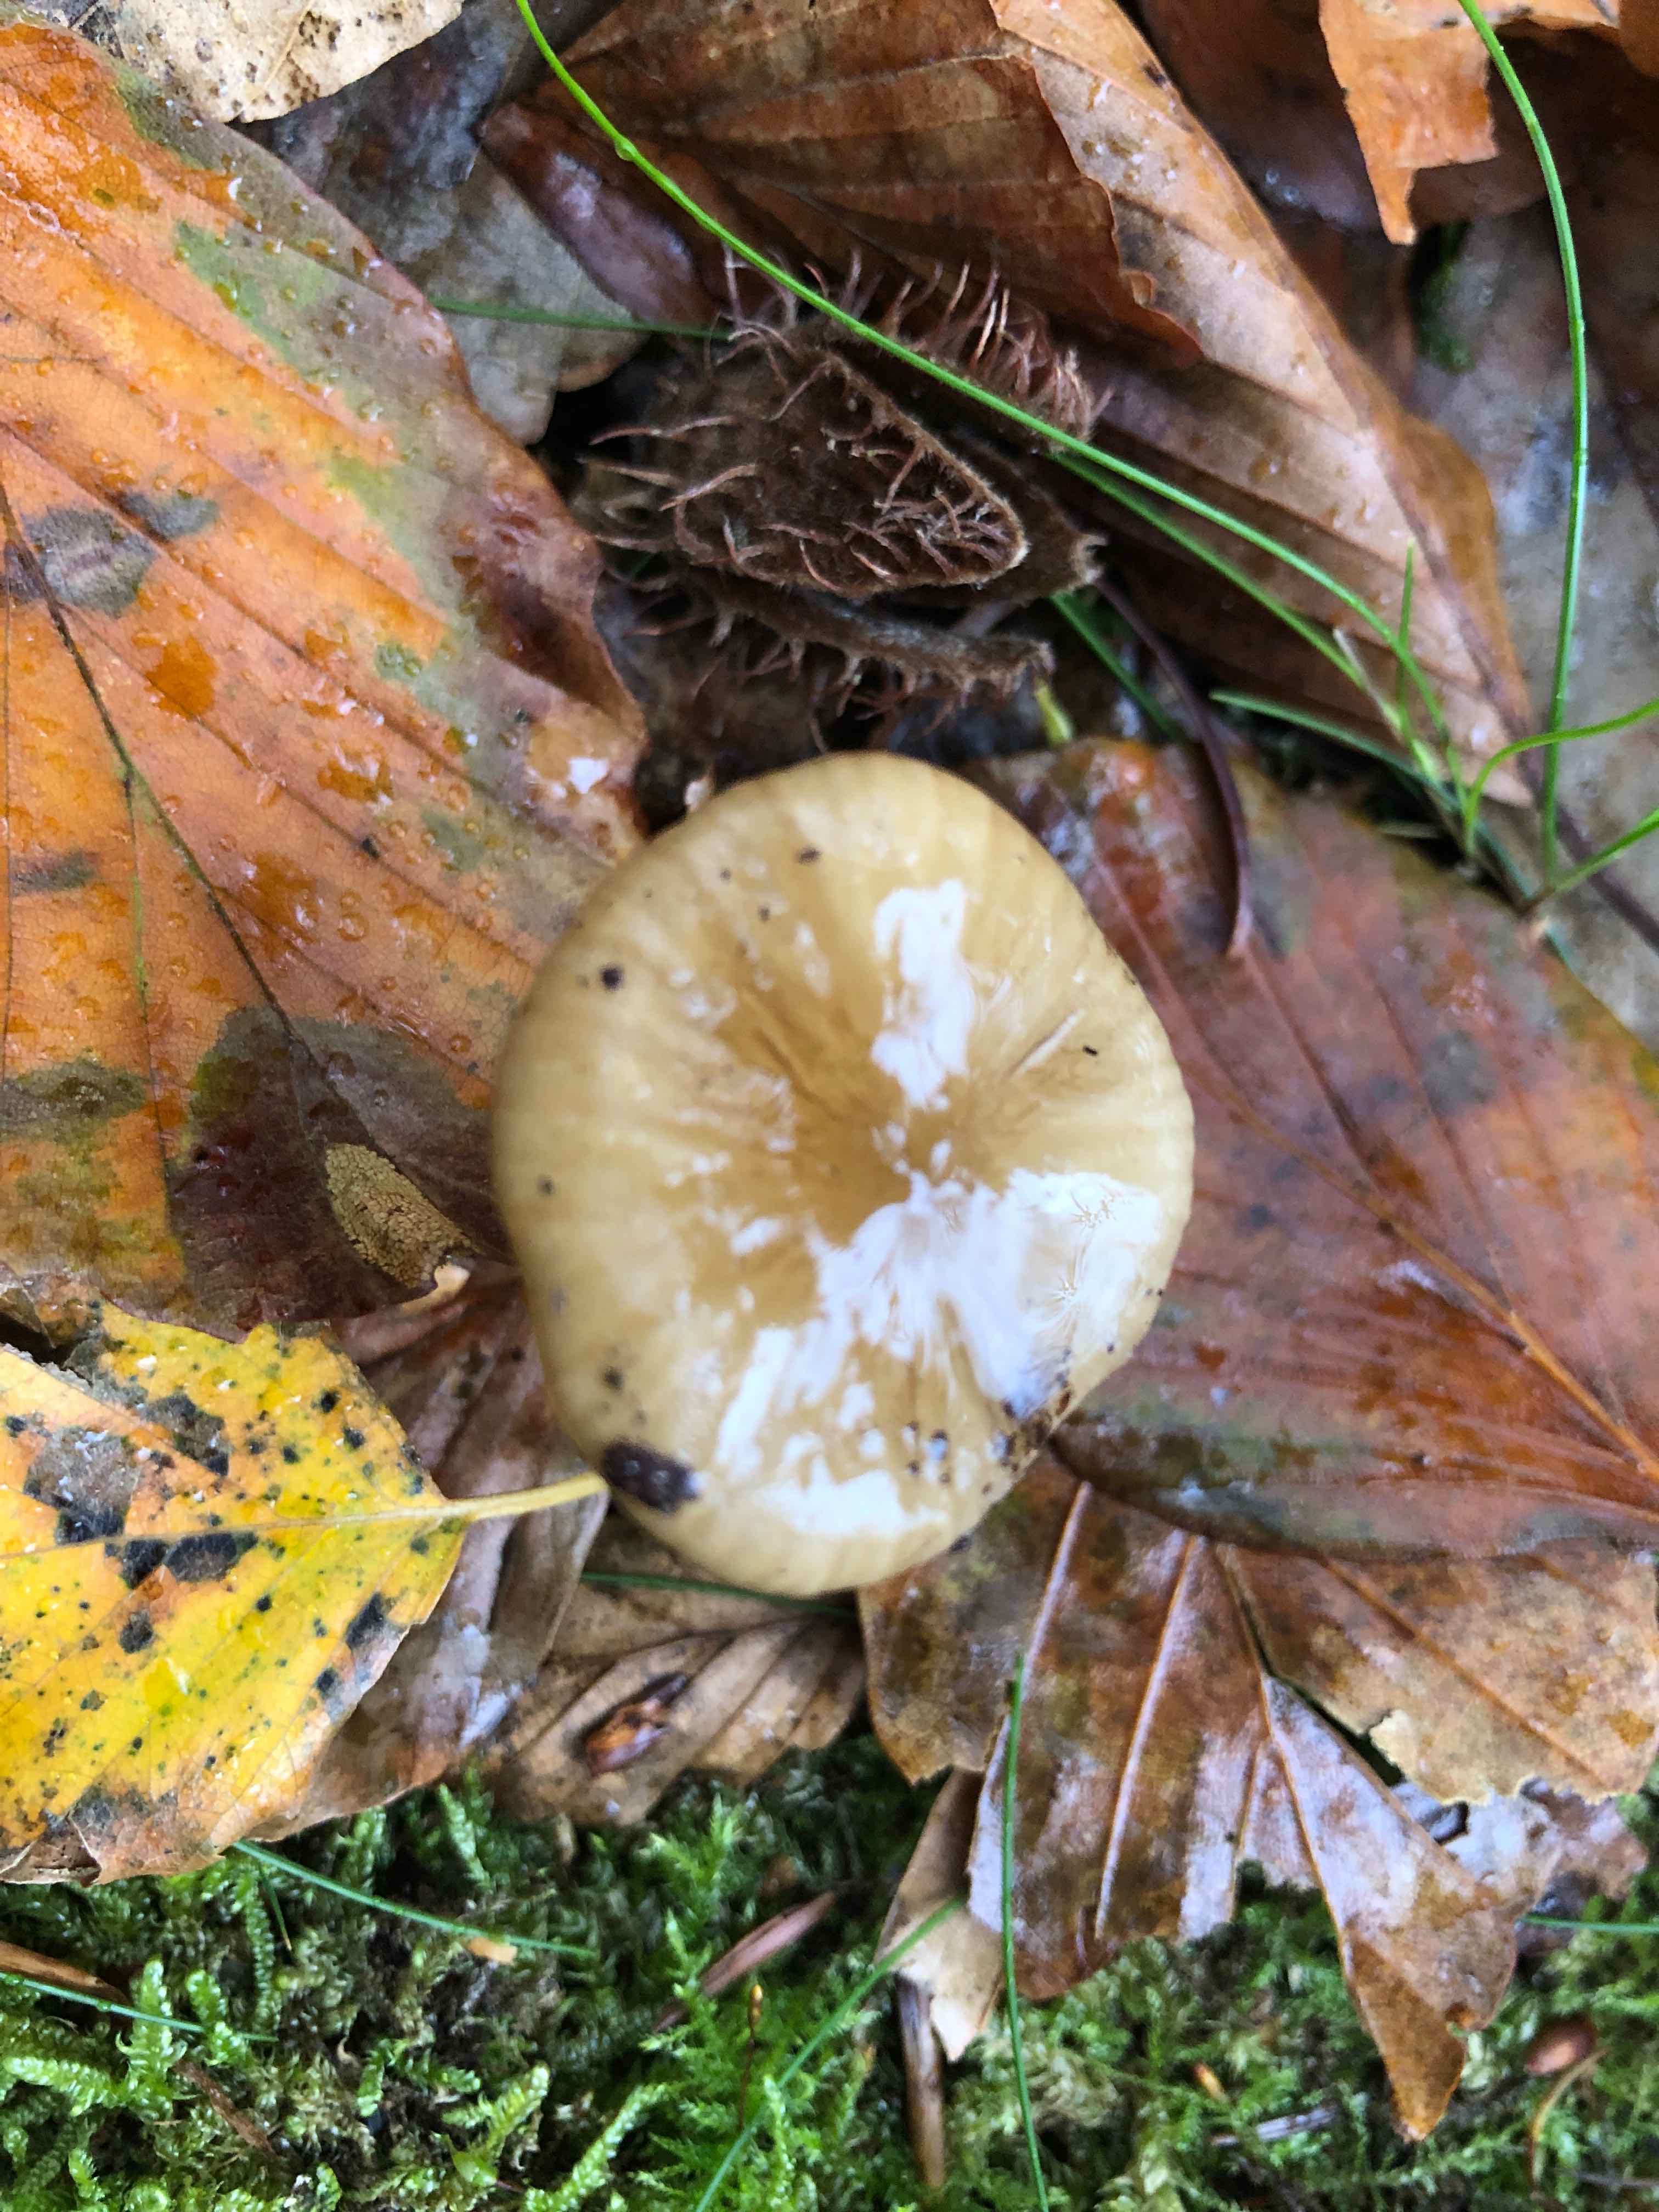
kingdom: Fungi
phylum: Basidiomycota
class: Agaricomycetes
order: Agaricales
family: Physalacriaceae
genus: Hymenopellis
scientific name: Hymenopellis radicata
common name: almindelig pælerodshat
